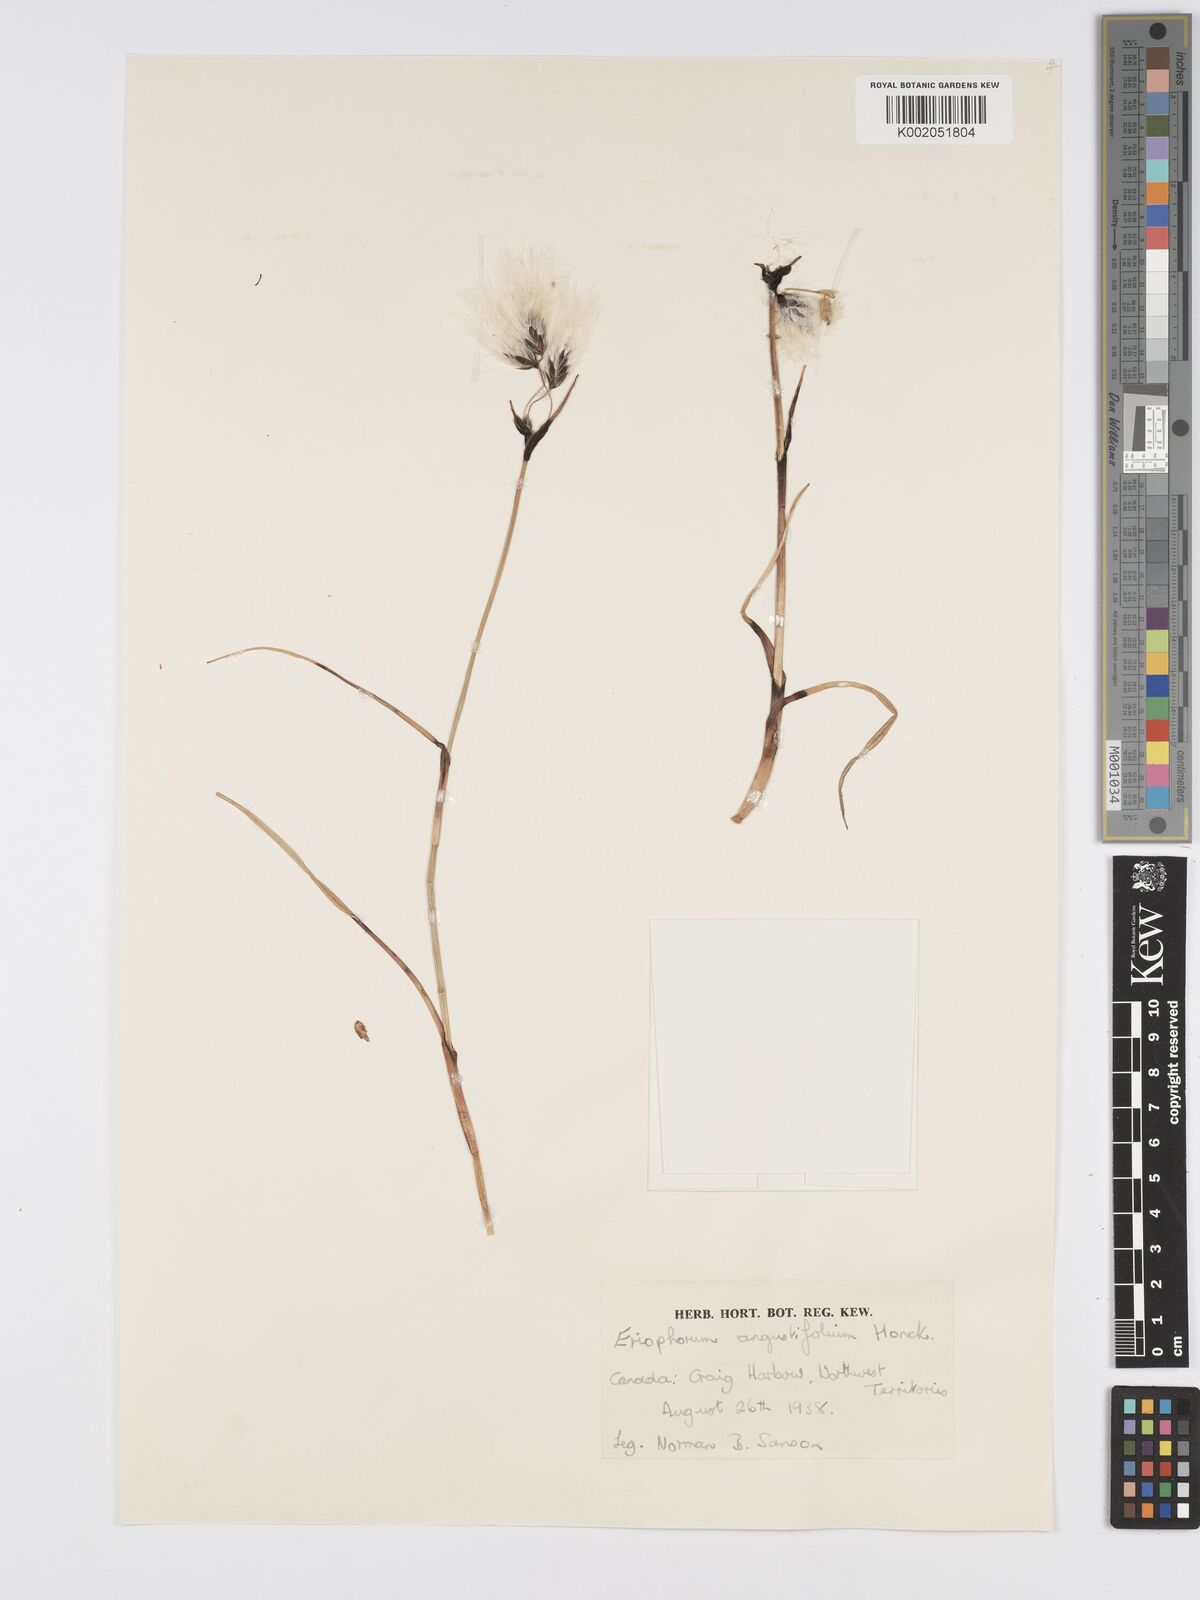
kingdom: Plantae
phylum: Tracheophyta
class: Liliopsida
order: Poales
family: Cyperaceae
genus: Eriophorum
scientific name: Eriophorum angustifolium
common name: Common cottongrass
